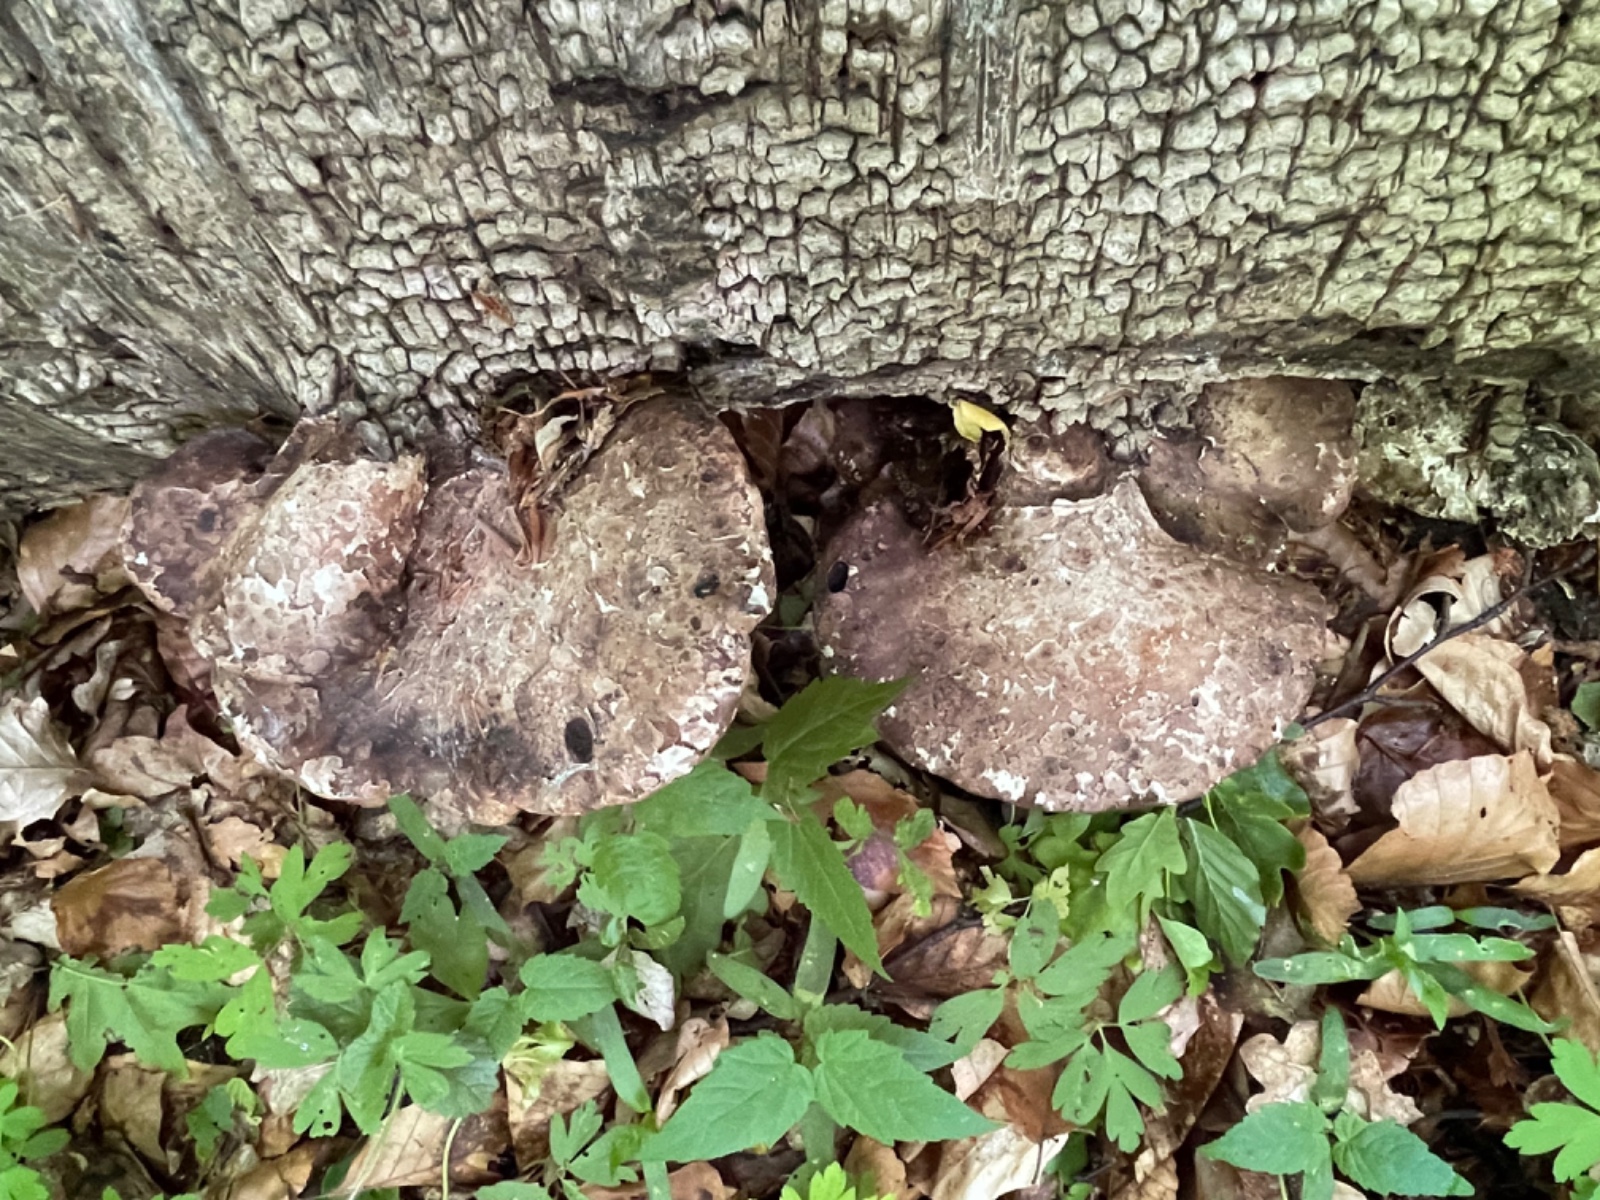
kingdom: Fungi
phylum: Basidiomycota
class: Agaricomycetes
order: Polyporales
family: Fomitopsidaceae
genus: Fomitopsis
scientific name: Fomitopsis betulina
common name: birkeporesvamp
